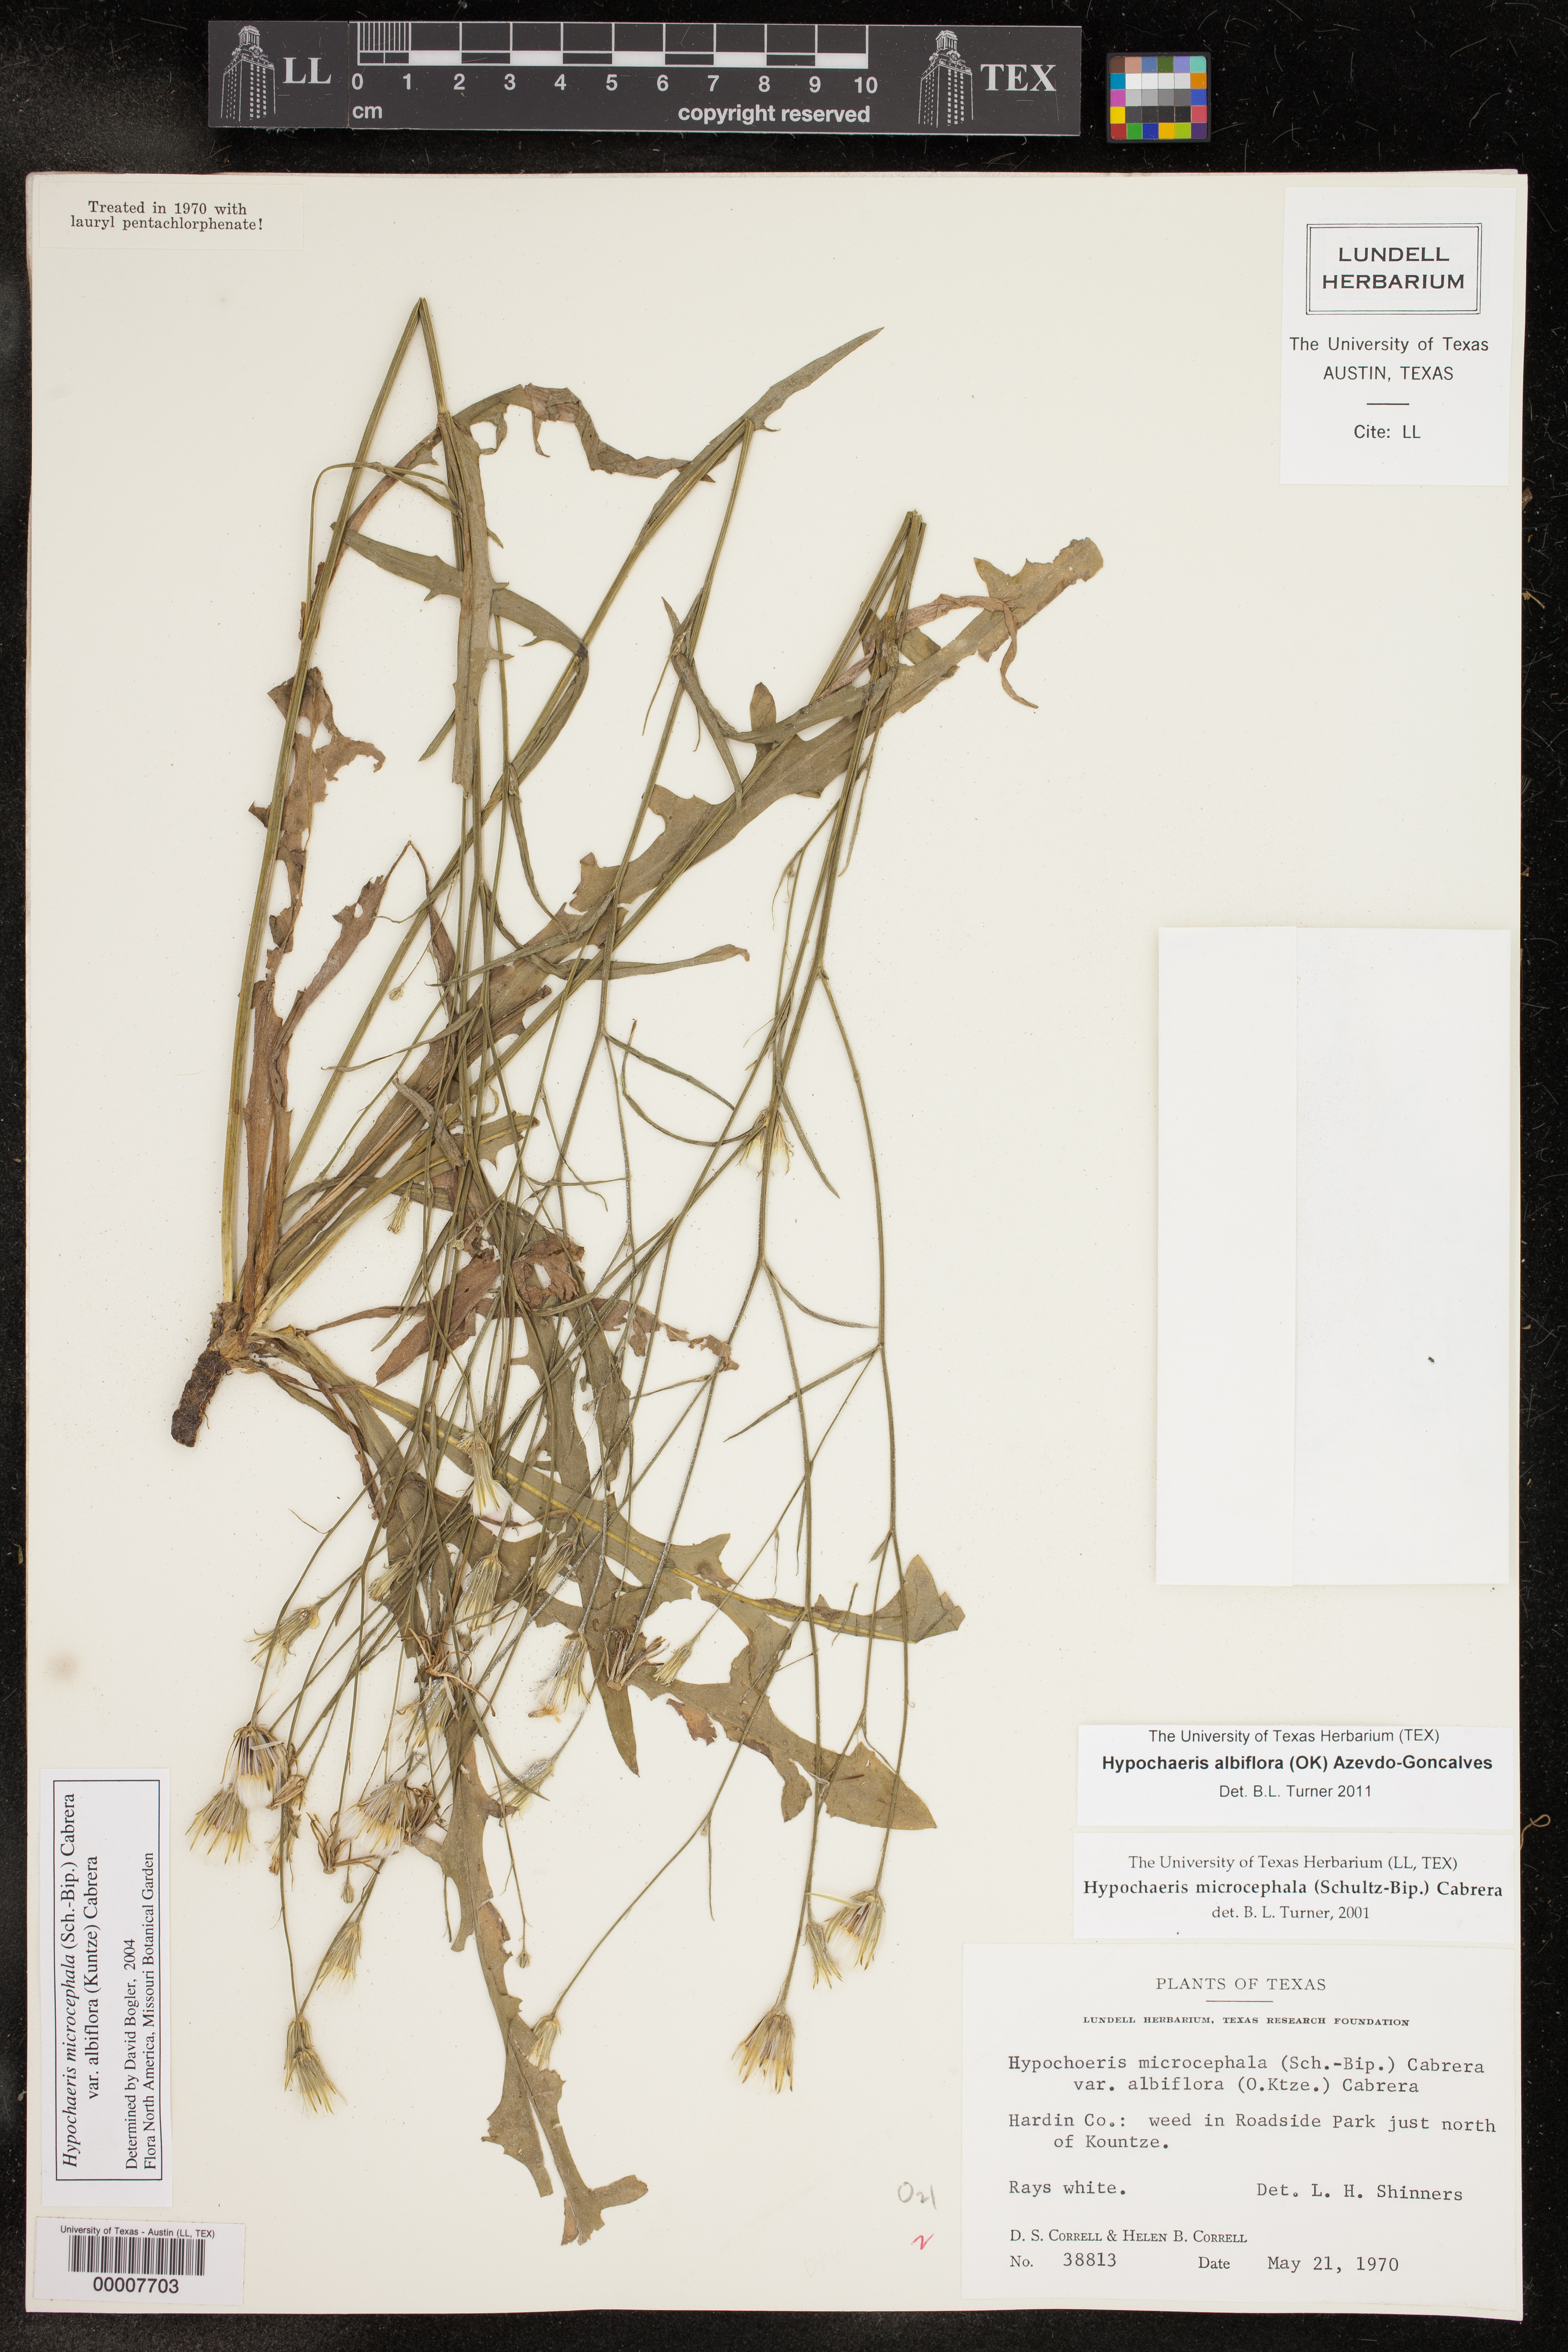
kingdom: Plantae
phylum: Tracheophyta
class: Magnoliopsida
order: Asterales
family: Asteraceae
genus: Hypochaeris
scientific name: Hypochaeris albiflora
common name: White flatweed
